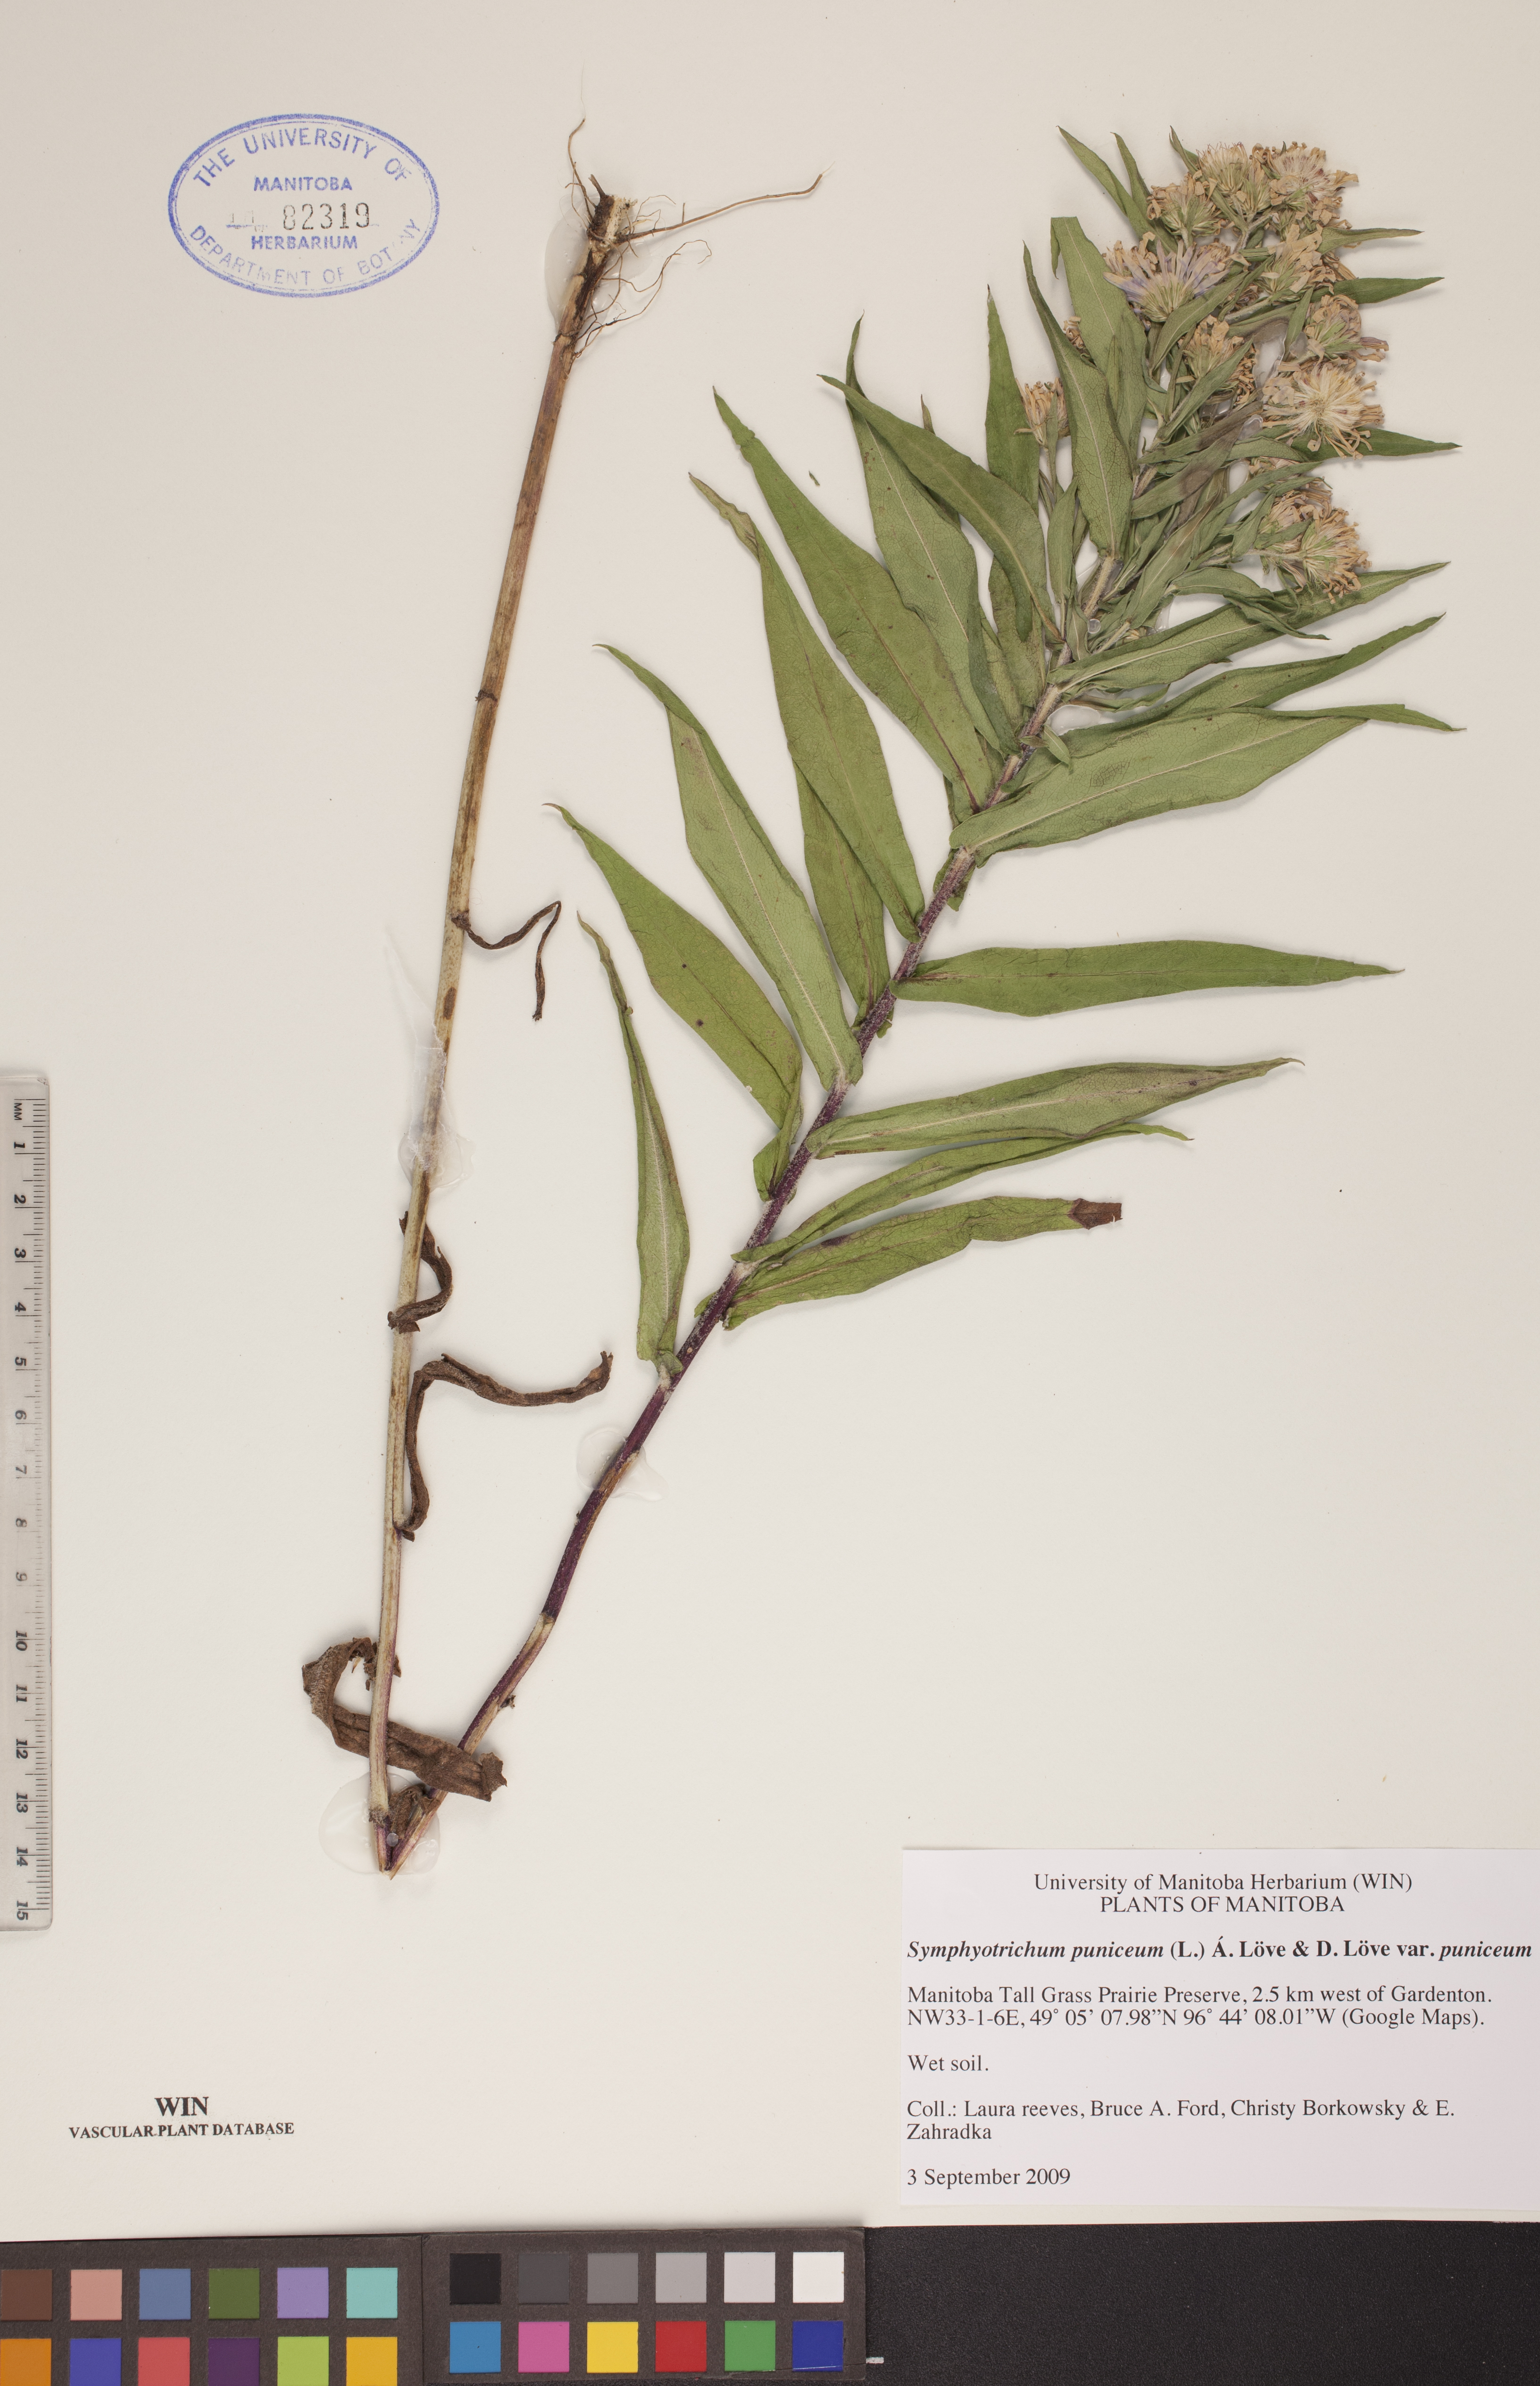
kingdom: Plantae
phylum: Tracheophyta
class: Magnoliopsida
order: Asterales
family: Asteraceae
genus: Symphyotrichum
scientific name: Symphyotrichum puniceum
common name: Bog aster
